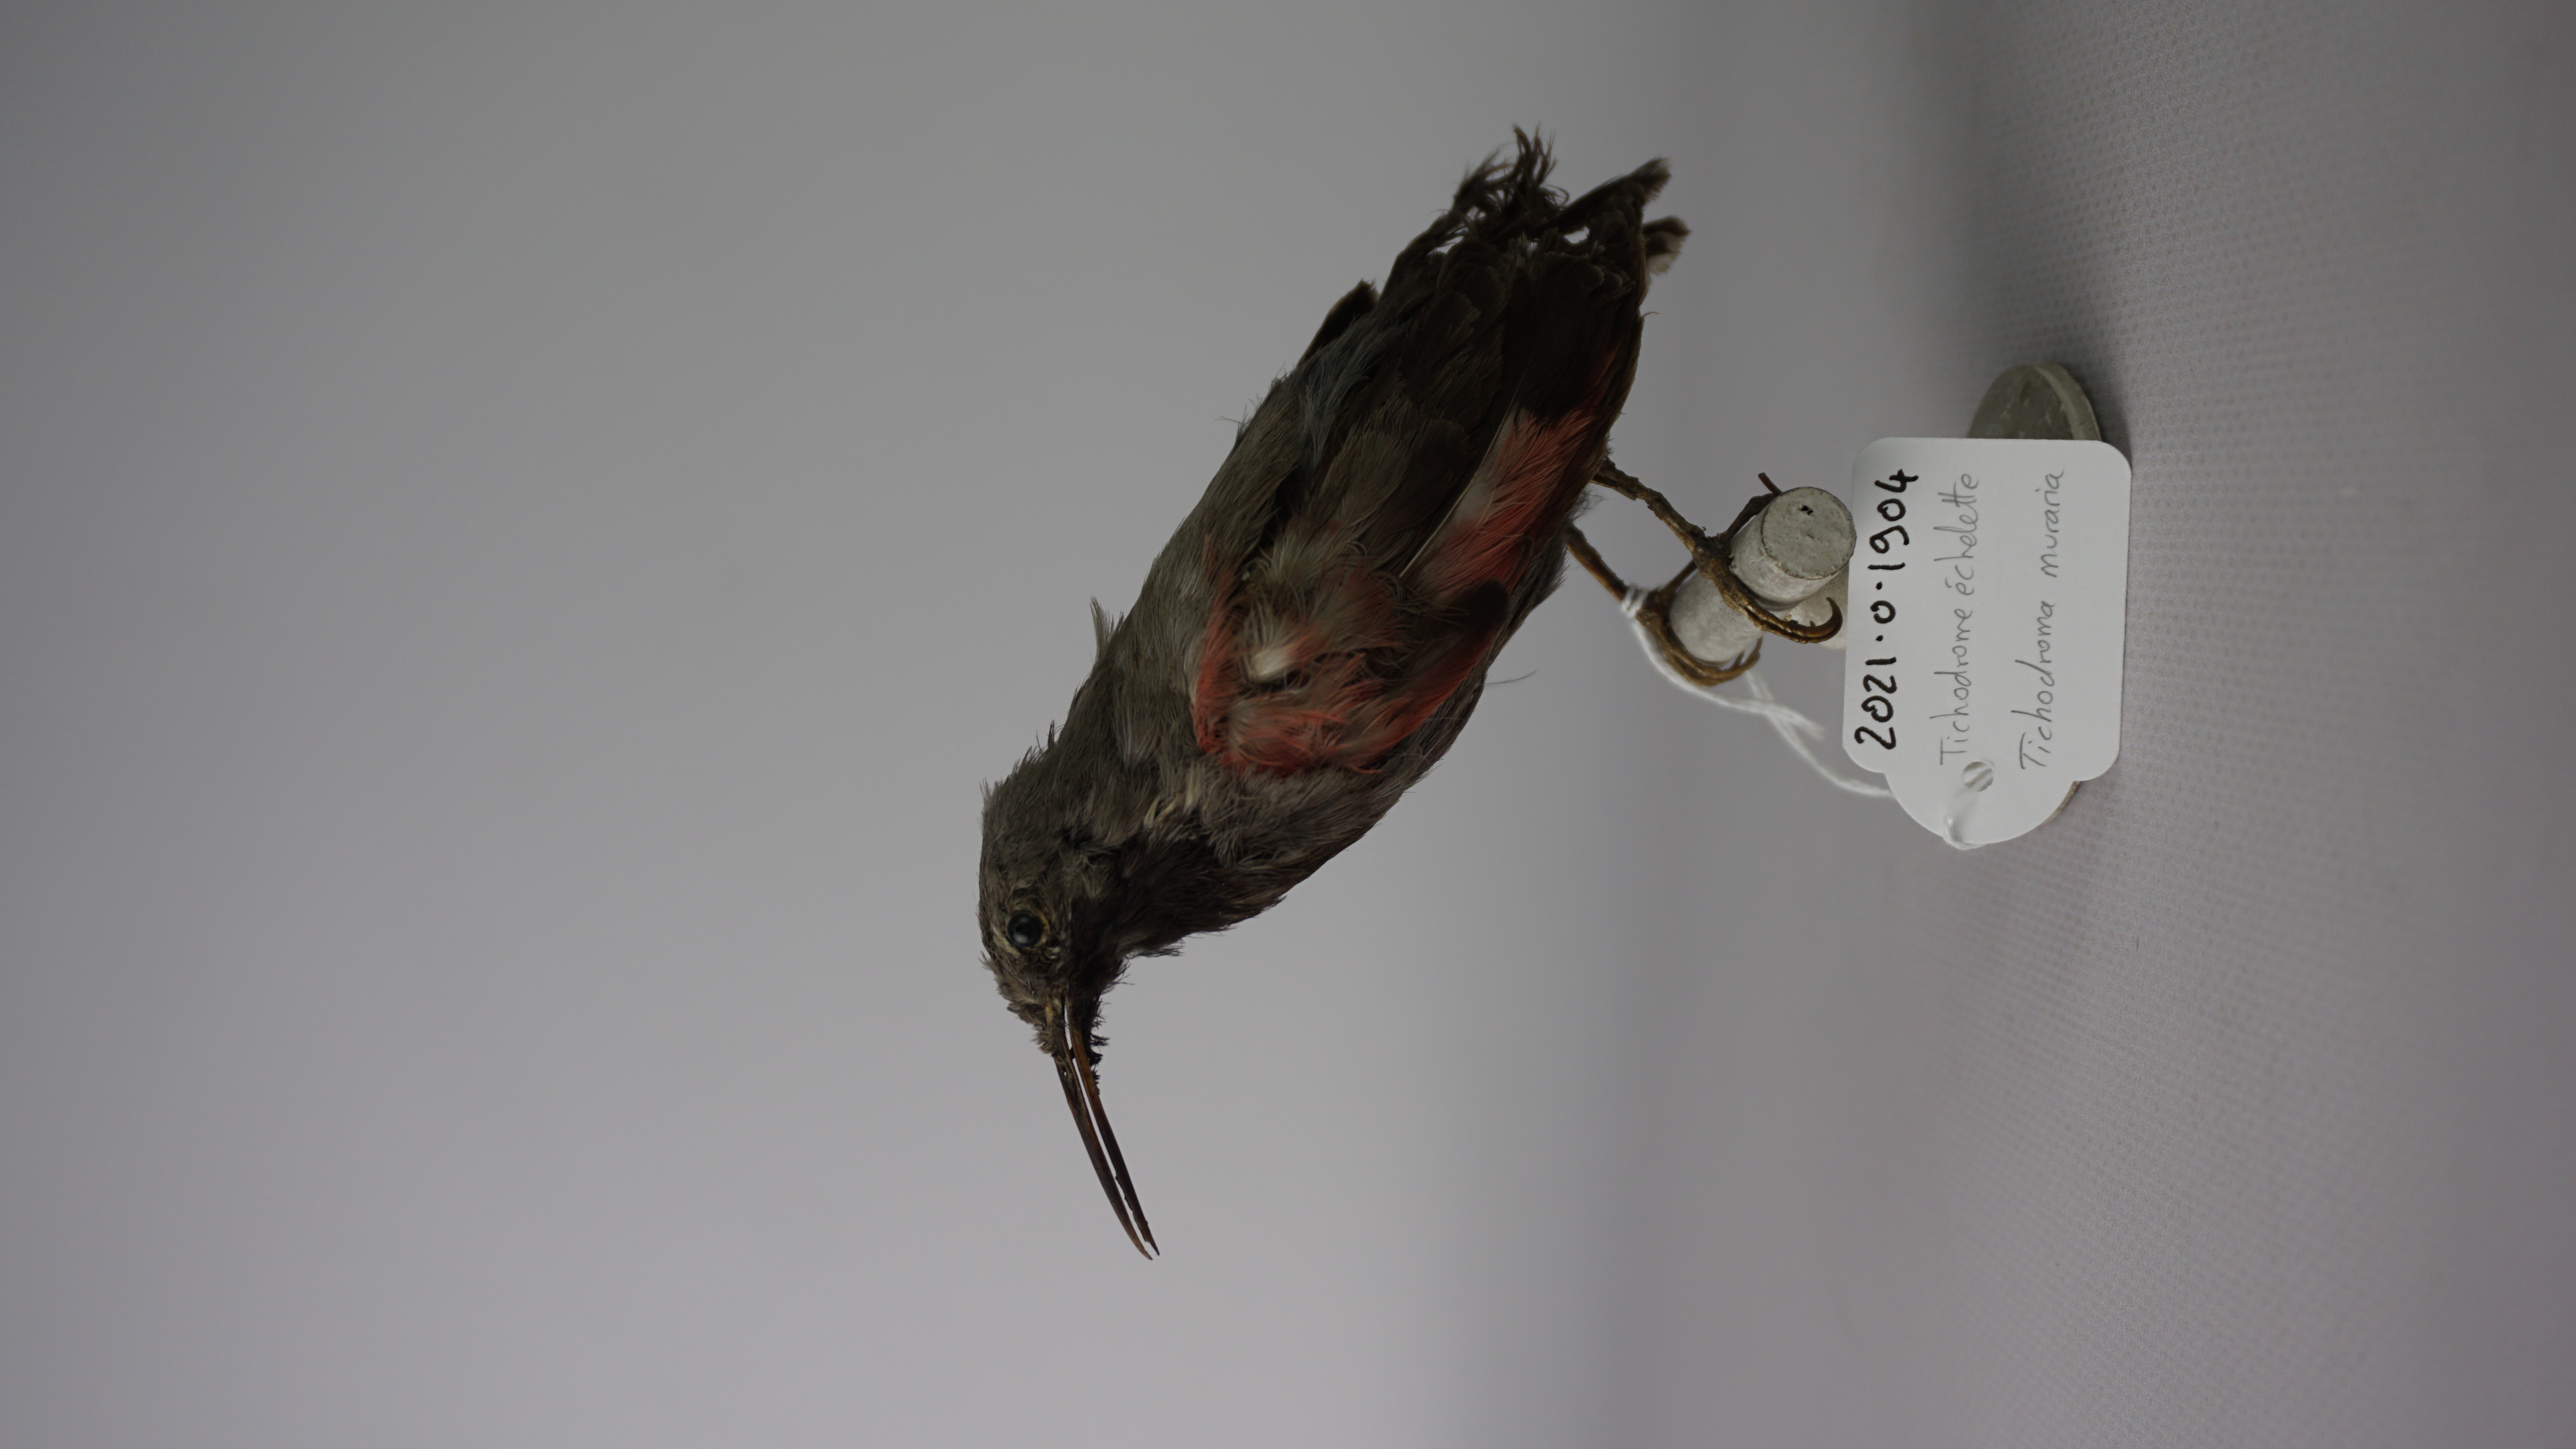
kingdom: Animalia
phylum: Chordata
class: Aves
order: Passeriformes
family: Tichodromidae
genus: Tichodroma
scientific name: Tichodroma muraria
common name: Wallcreeper
